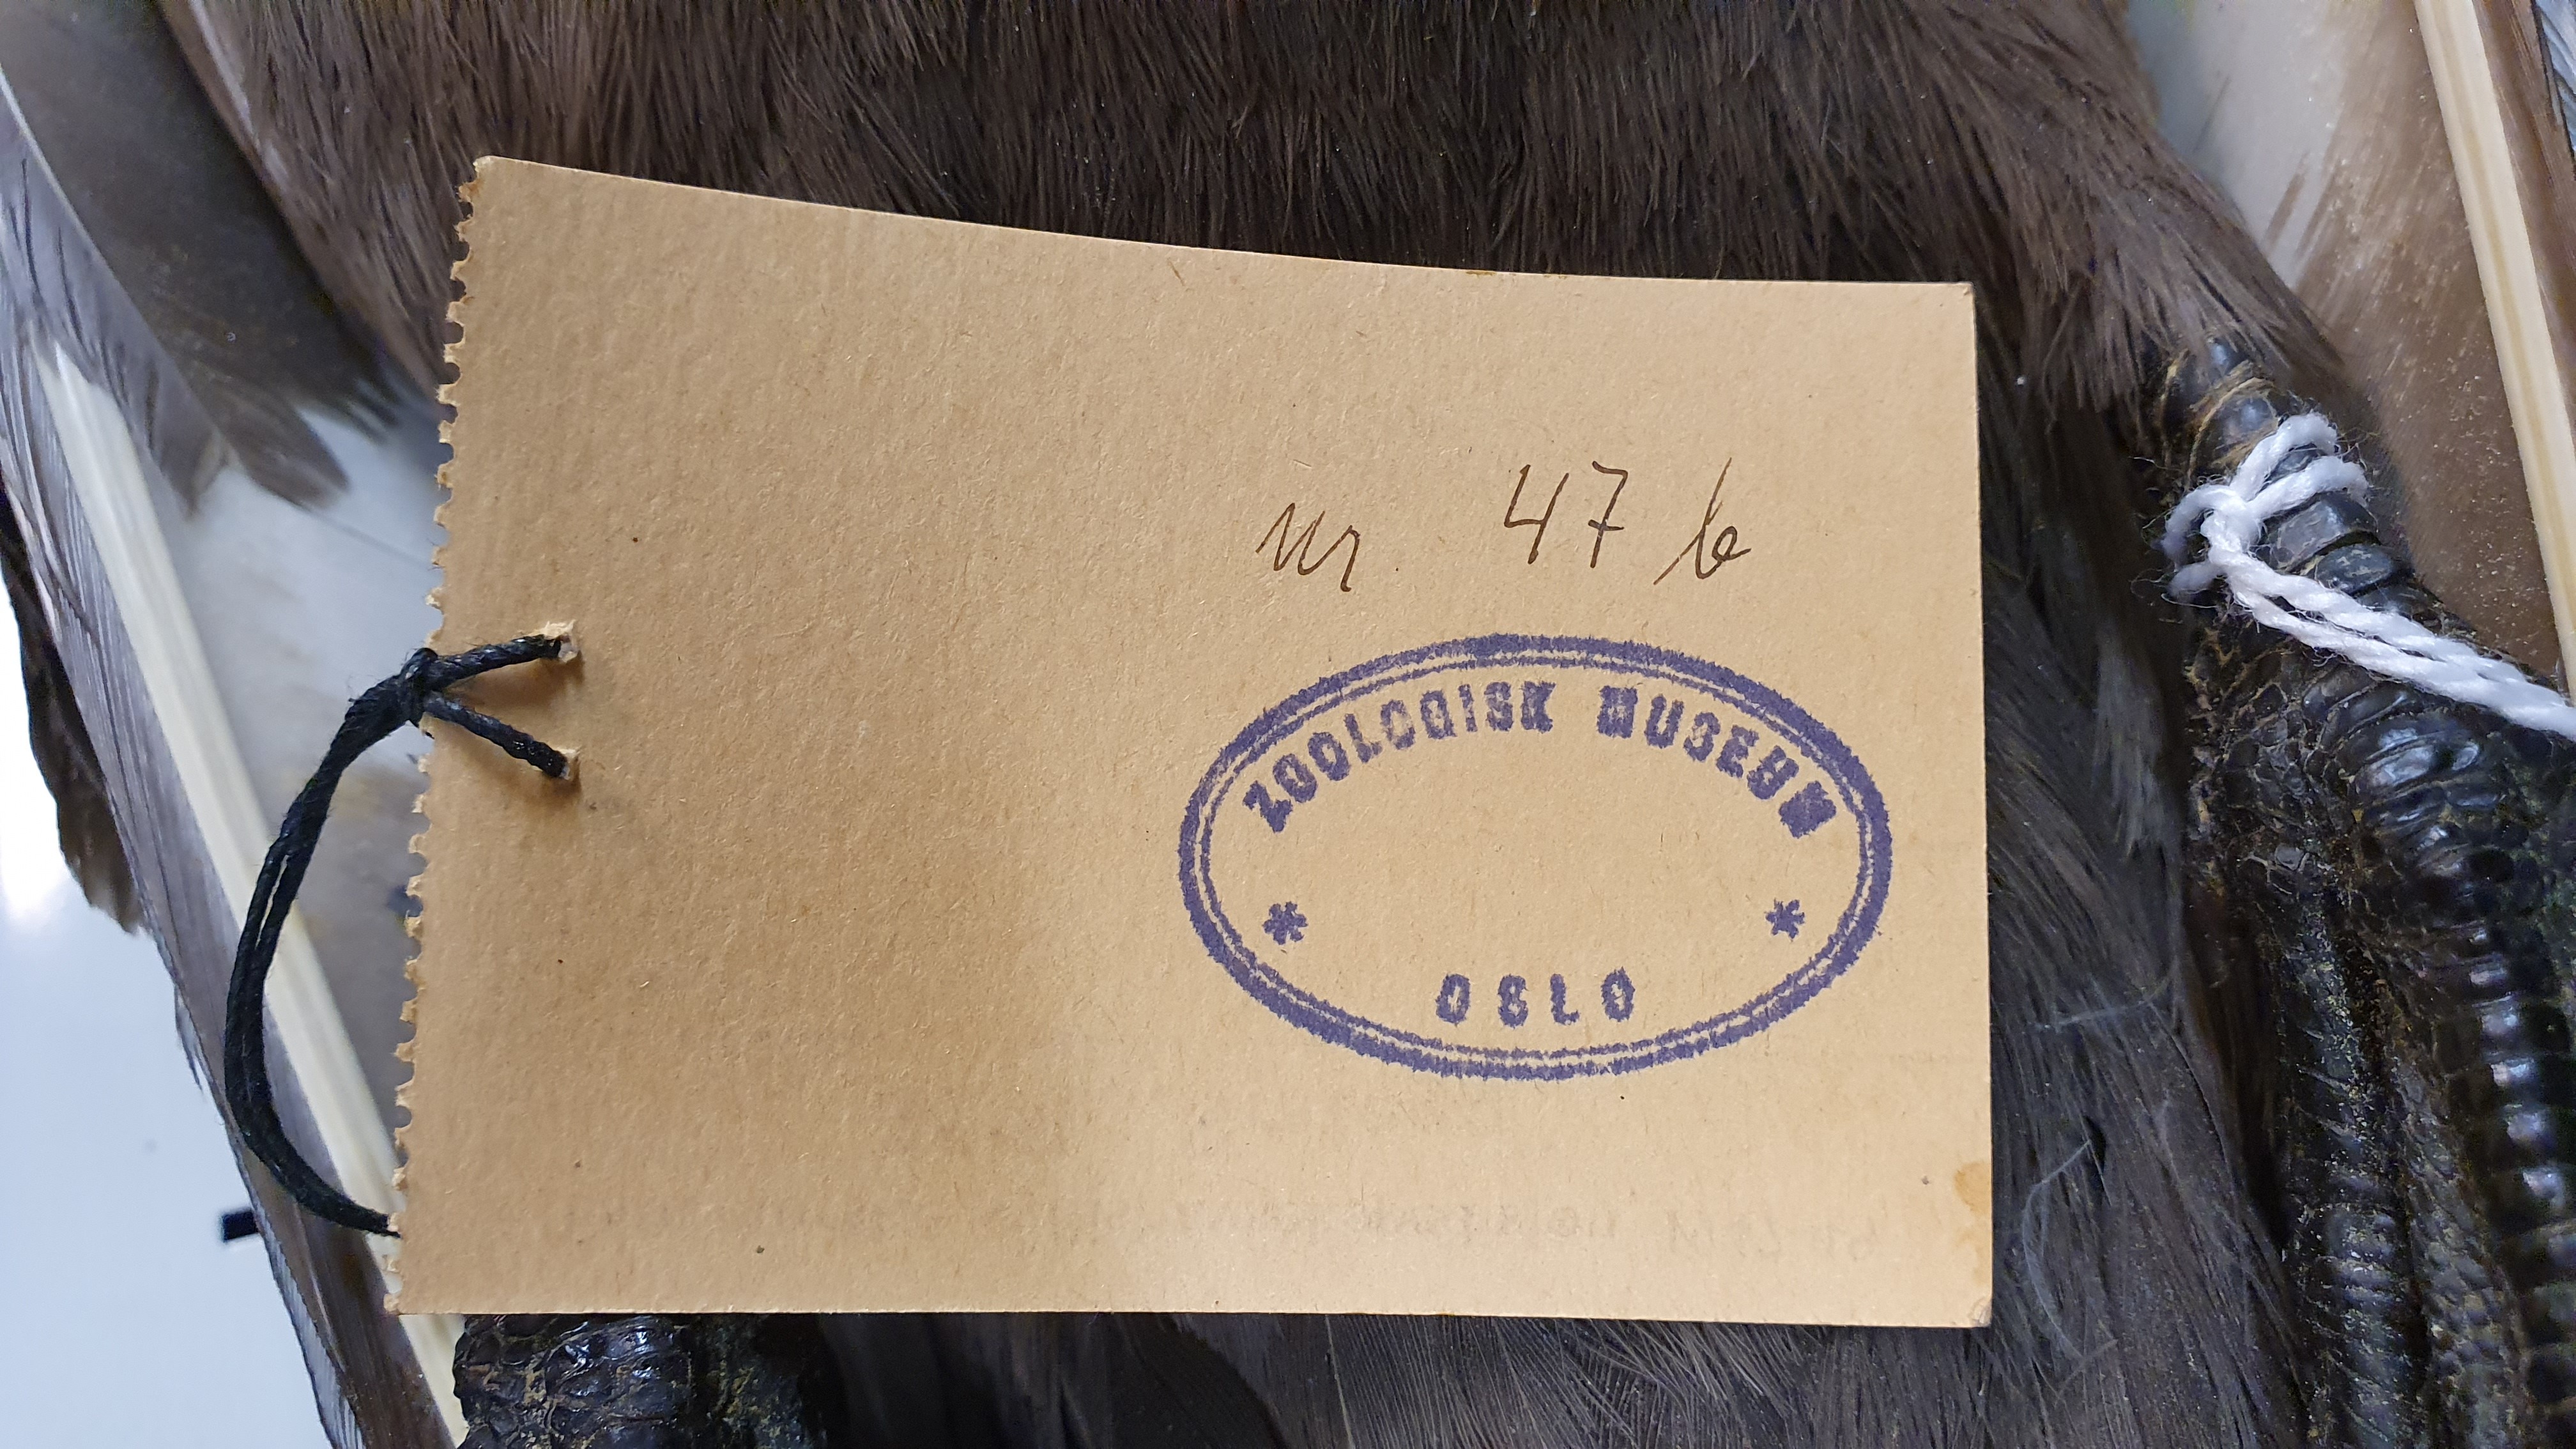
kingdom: Animalia
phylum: Chordata
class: Aves
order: Charadriiformes
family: Stercorariidae
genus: Stercorarius
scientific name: Stercorarius antarcticus
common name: Brown skua
